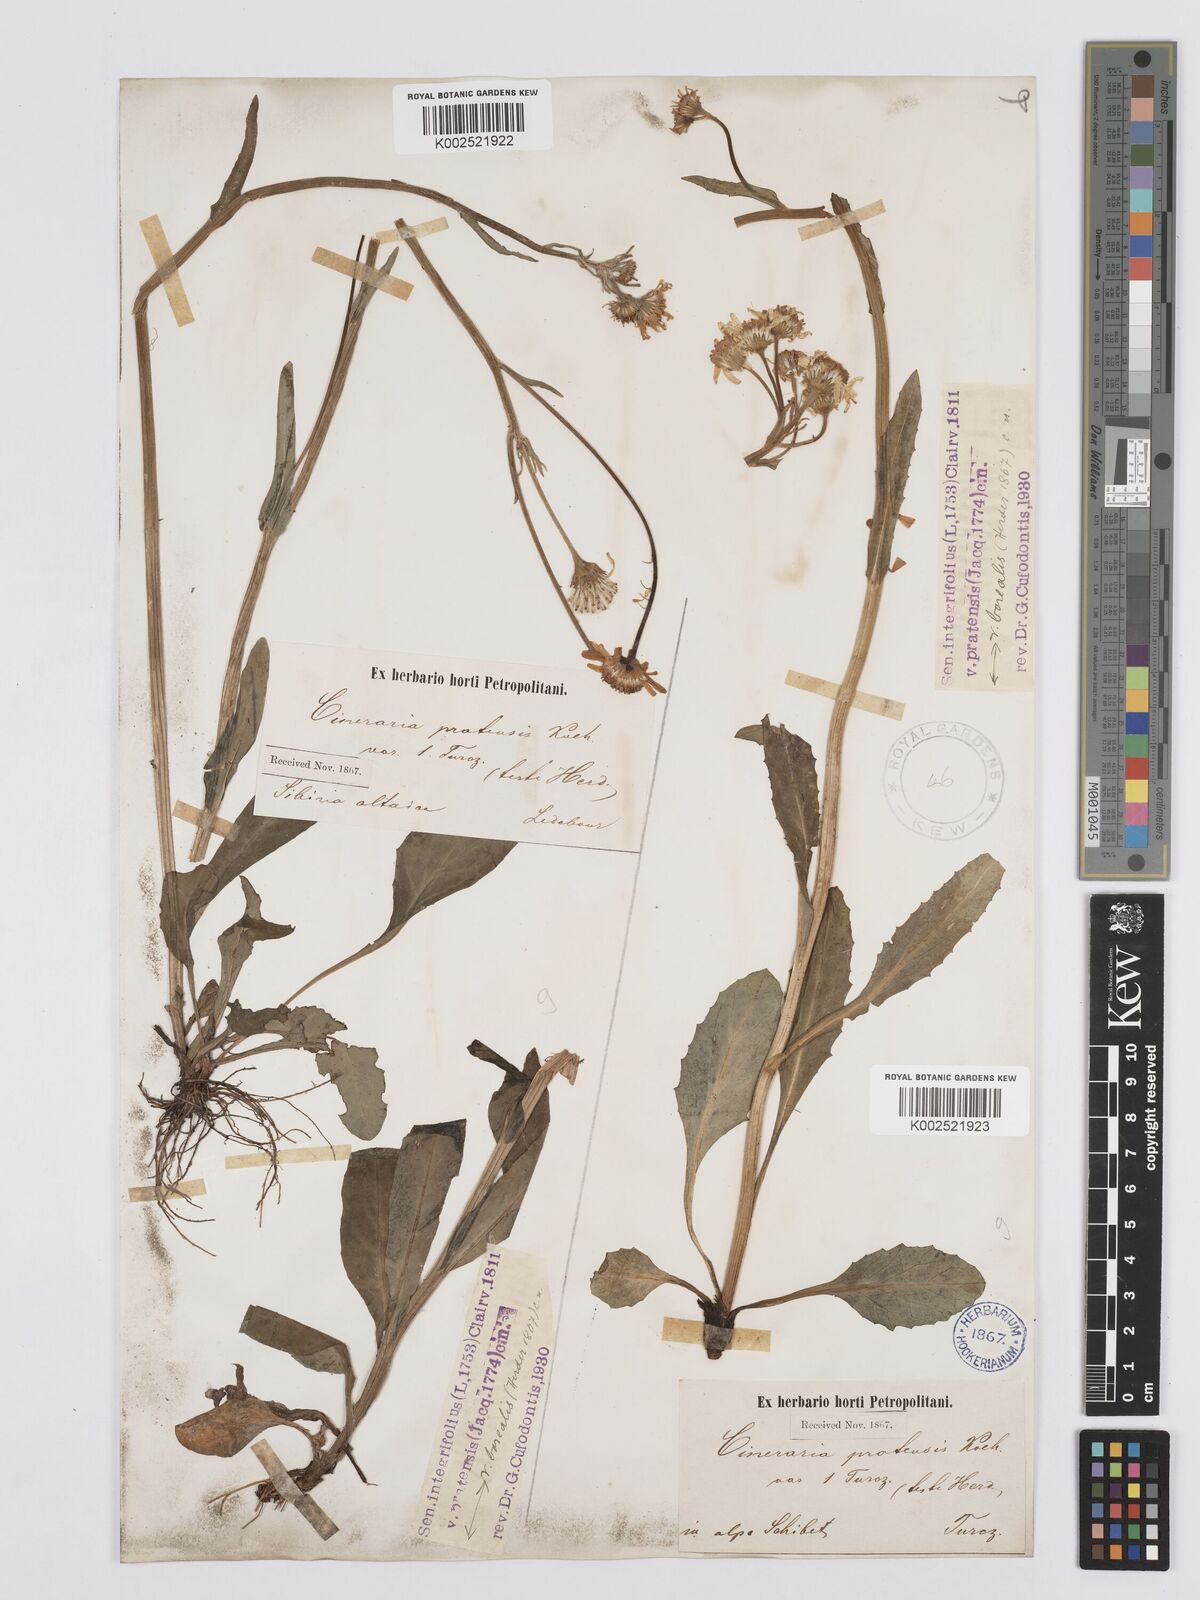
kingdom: Plantae
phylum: Tracheophyta
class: Magnoliopsida
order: Asterales
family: Asteraceae
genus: Tephroseris
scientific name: Tephroseris integrifolia
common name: Field fleawort
